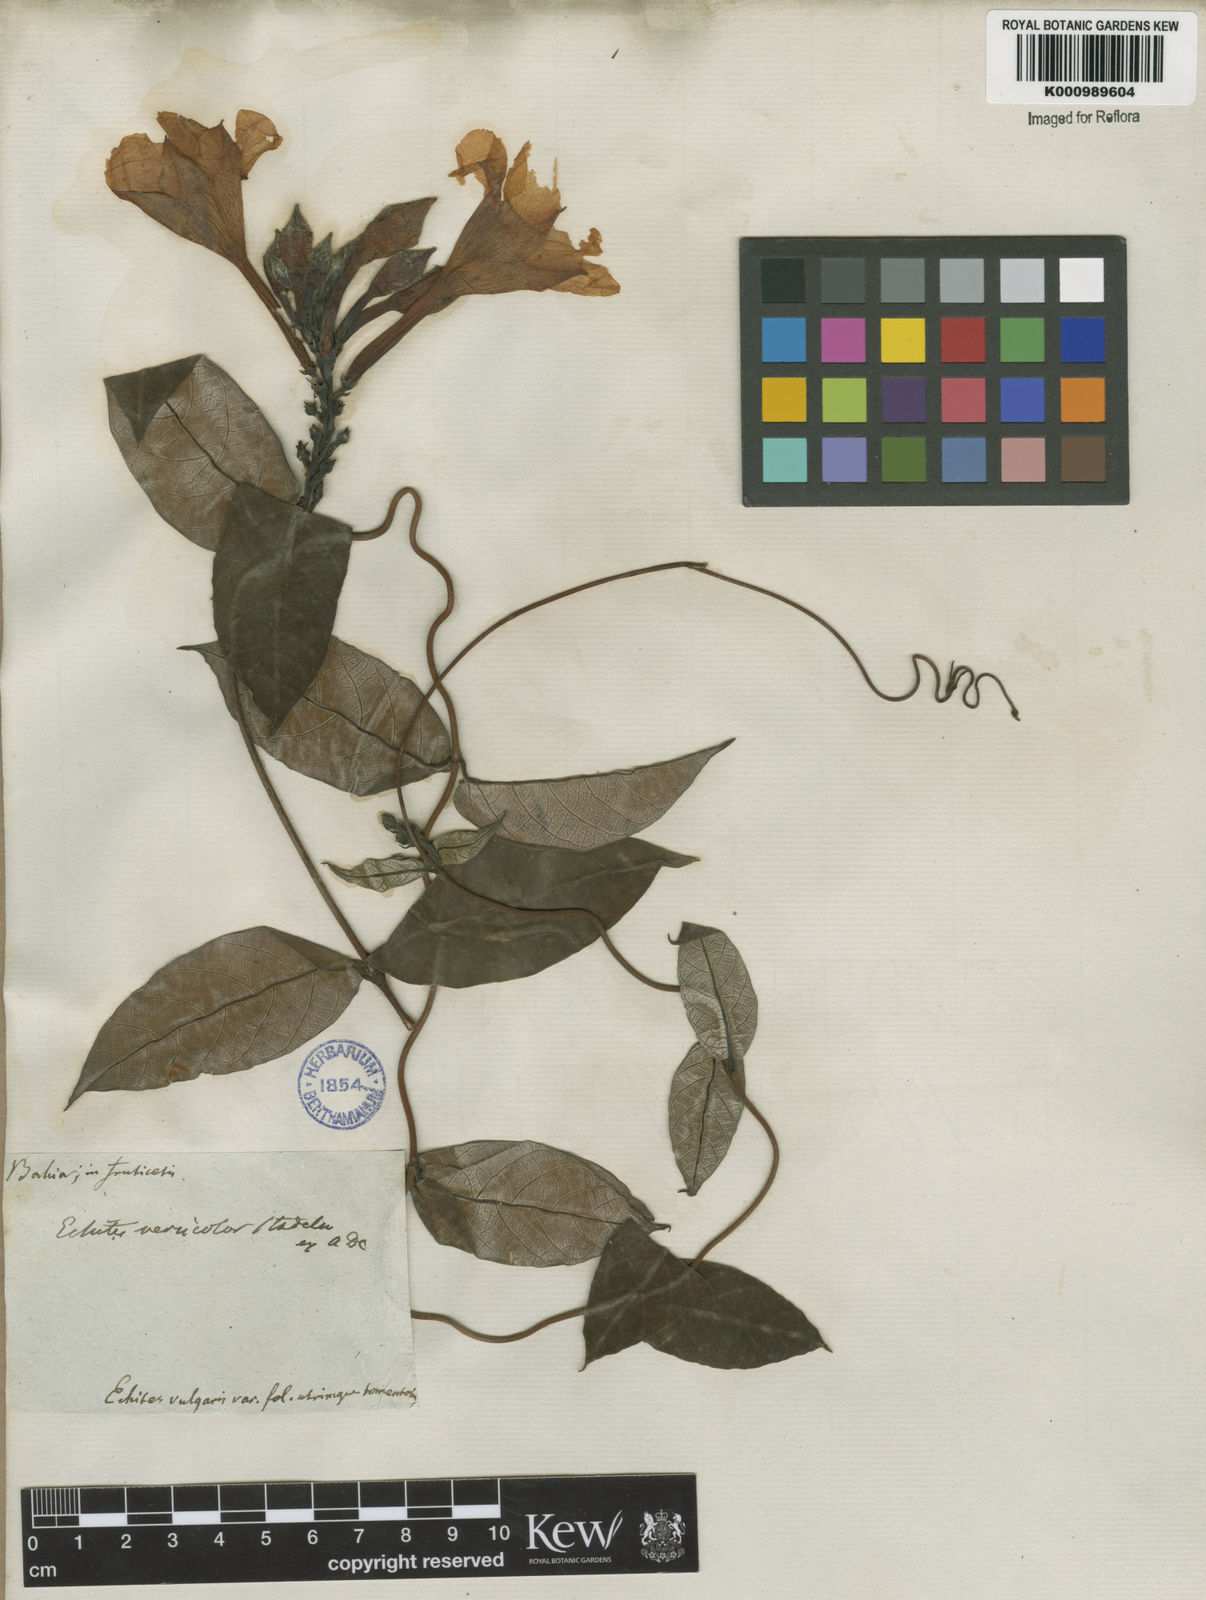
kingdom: Plantae
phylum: Tracheophyta
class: Magnoliopsida
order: Gentianales
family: Apocynaceae
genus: Mandevilla
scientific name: Mandevilla scabra
